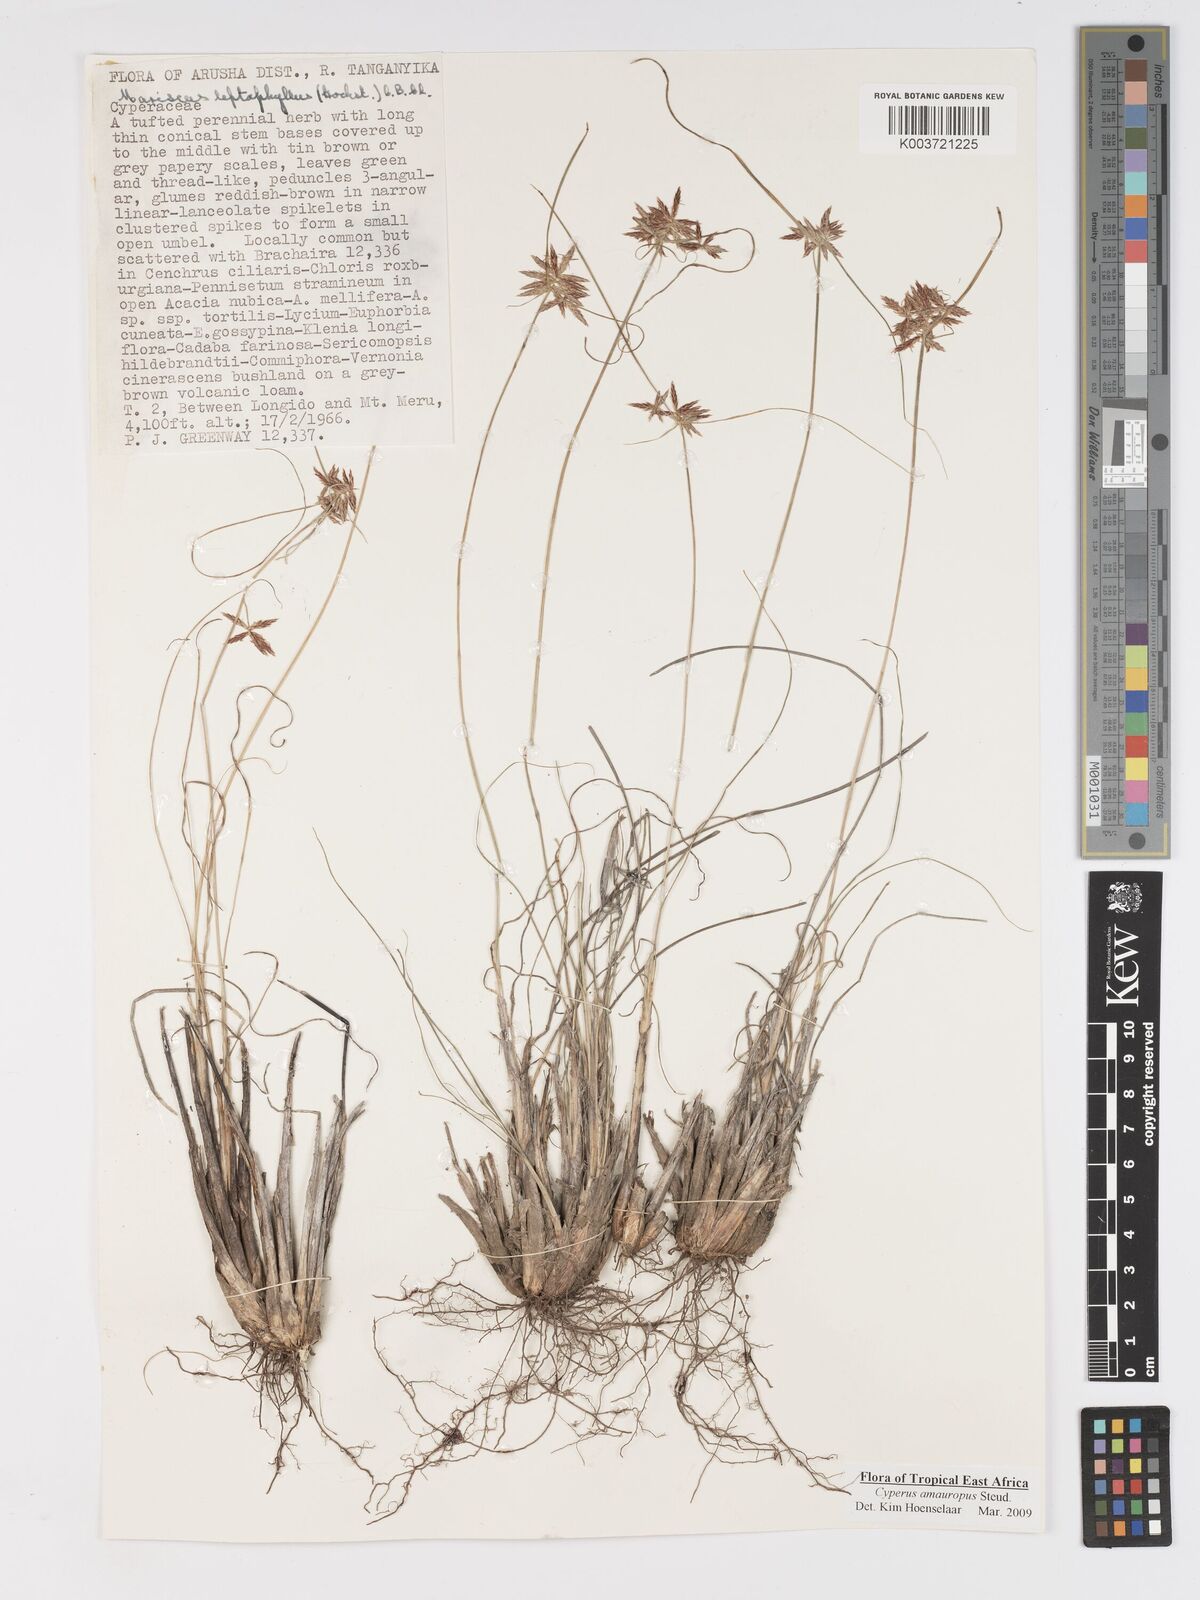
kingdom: Plantae
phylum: Tracheophyta
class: Liliopsida
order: Poales
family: Cyperaceae
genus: Cyperus
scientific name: Cyperus amauropus
